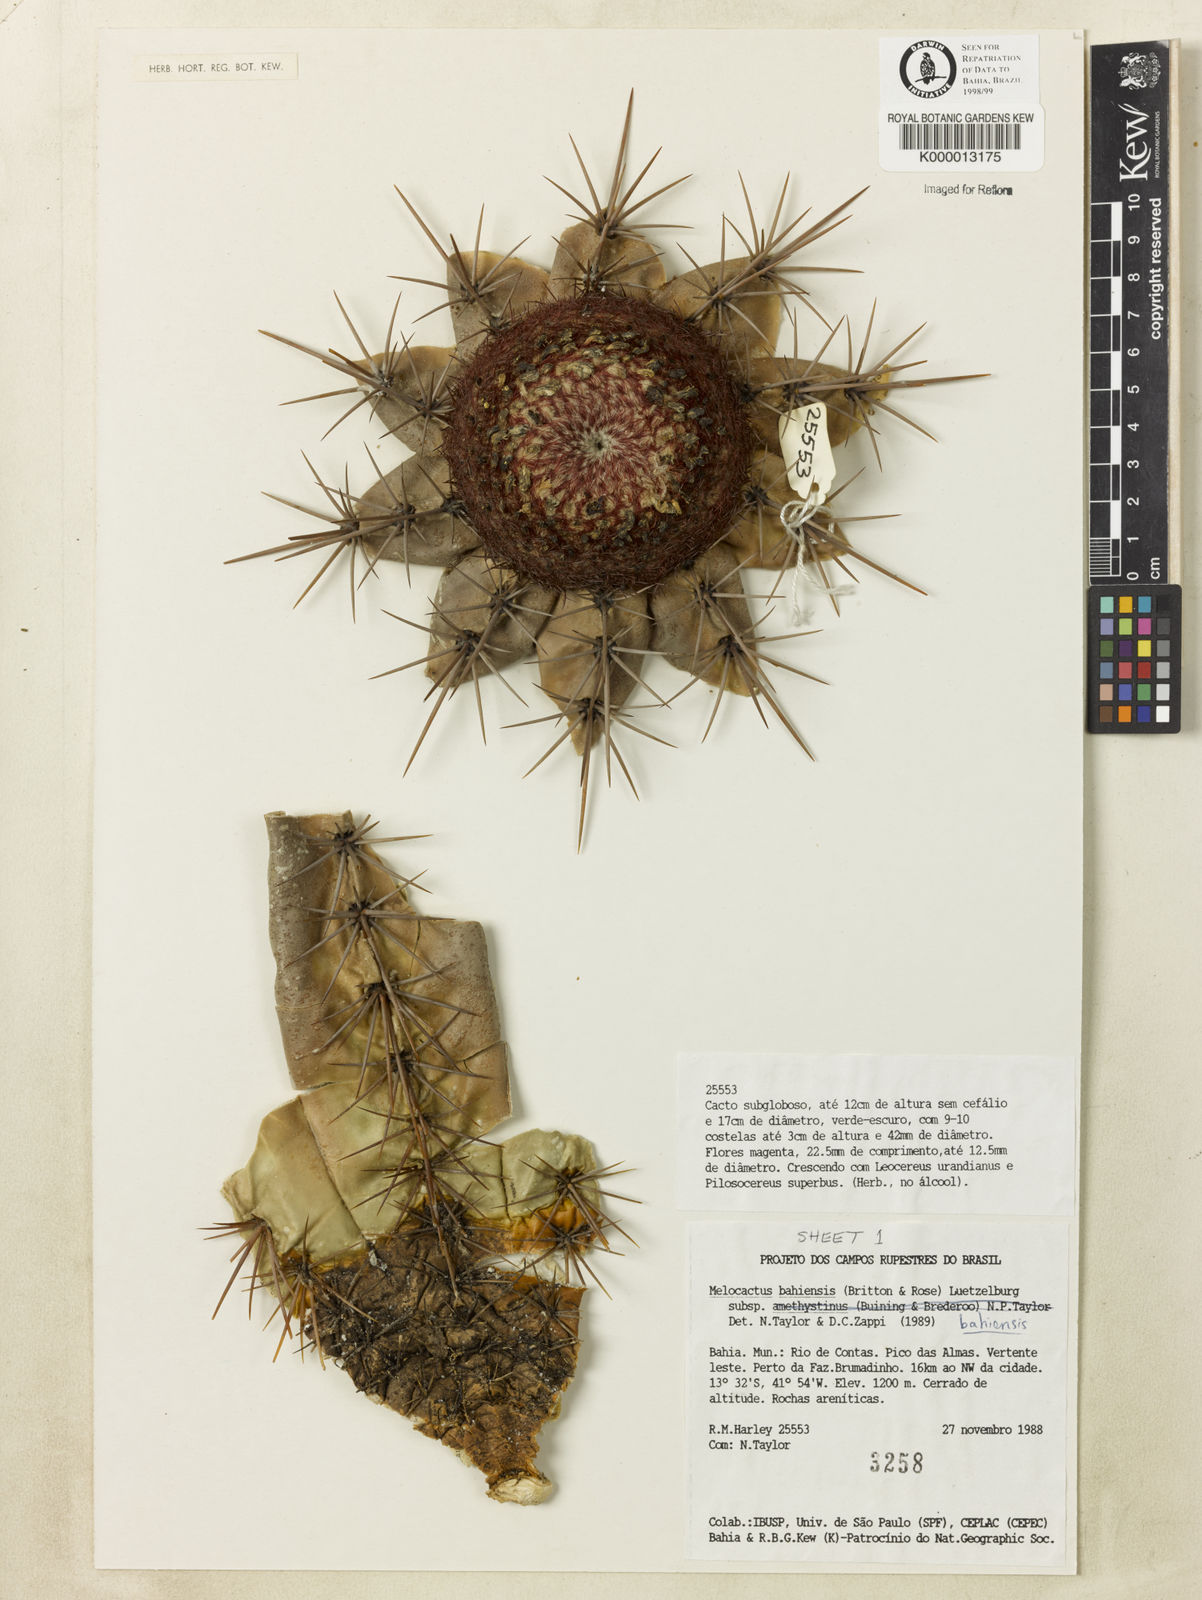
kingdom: Plantae
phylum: Tracheophyta
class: Magnoliopsida
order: Caryophyllales
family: Cactaceae
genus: Melocactus
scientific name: Melocactus bahiensis
